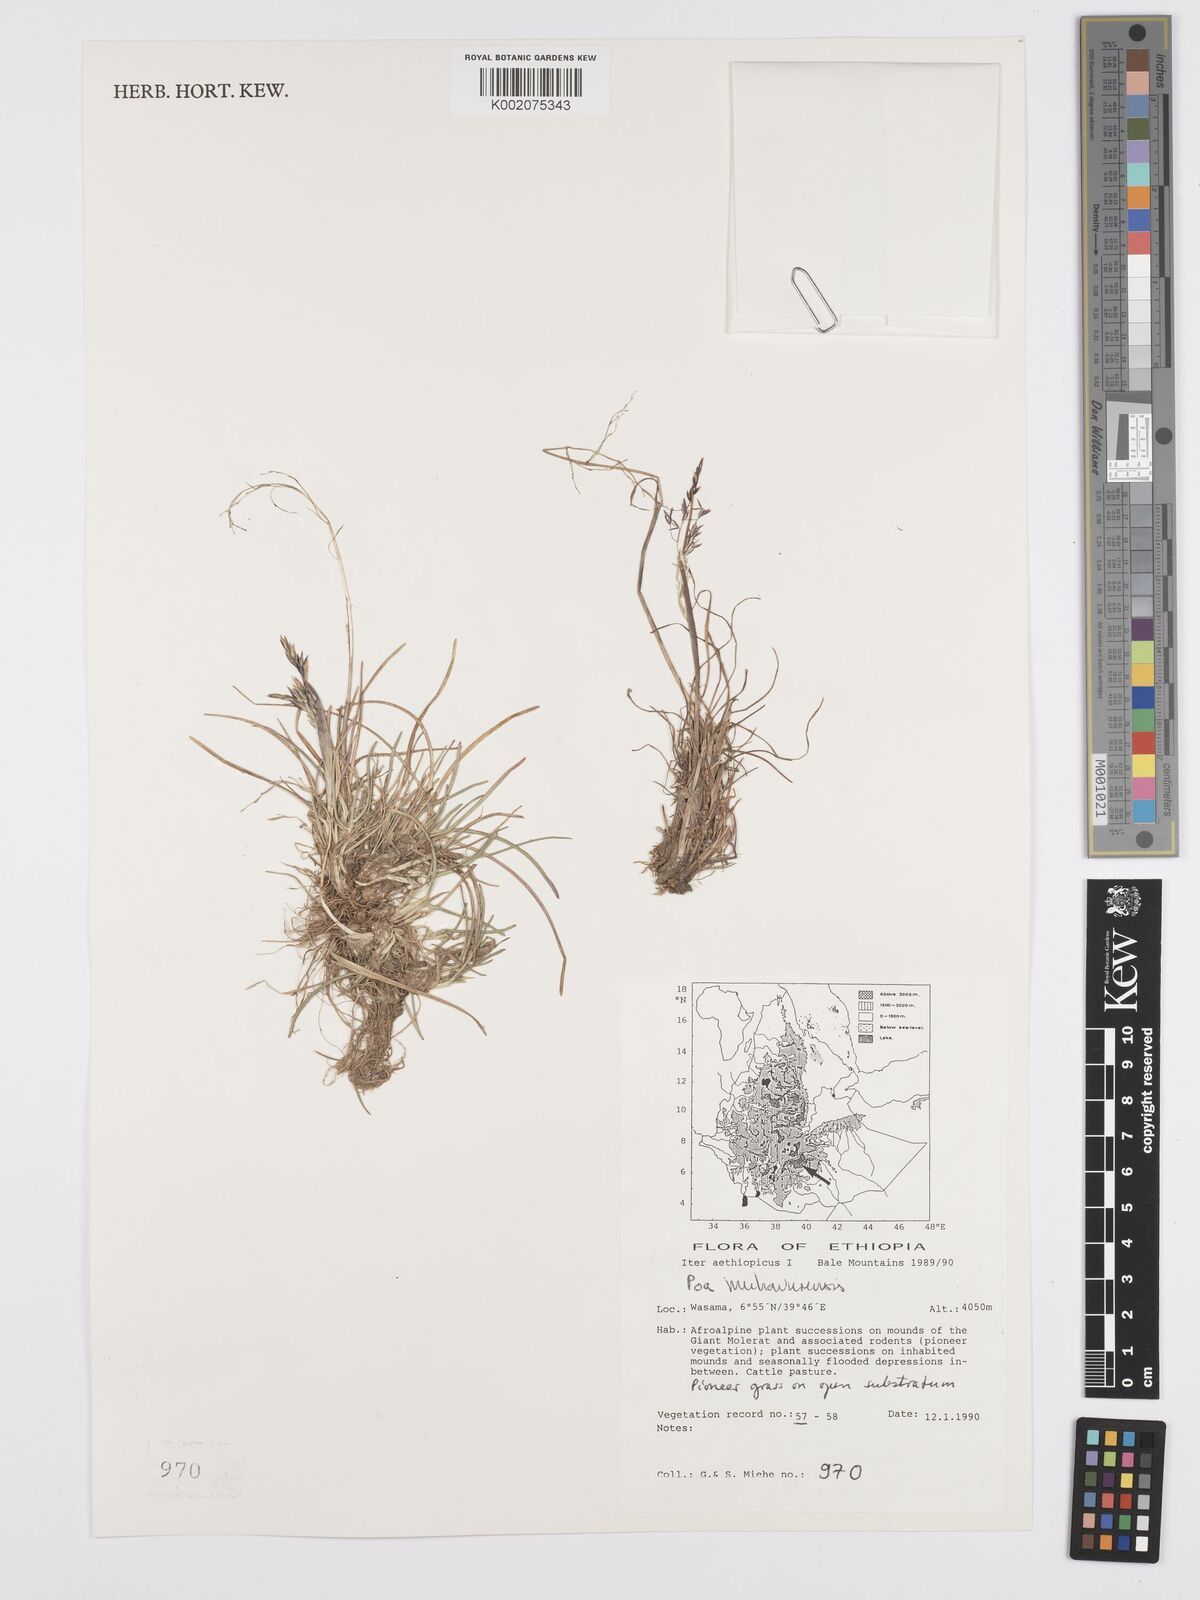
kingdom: Plantae
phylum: Tracheophyta
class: Liliopsida
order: Poales
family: Poaceae
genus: Poa
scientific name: Poa schimperiana
